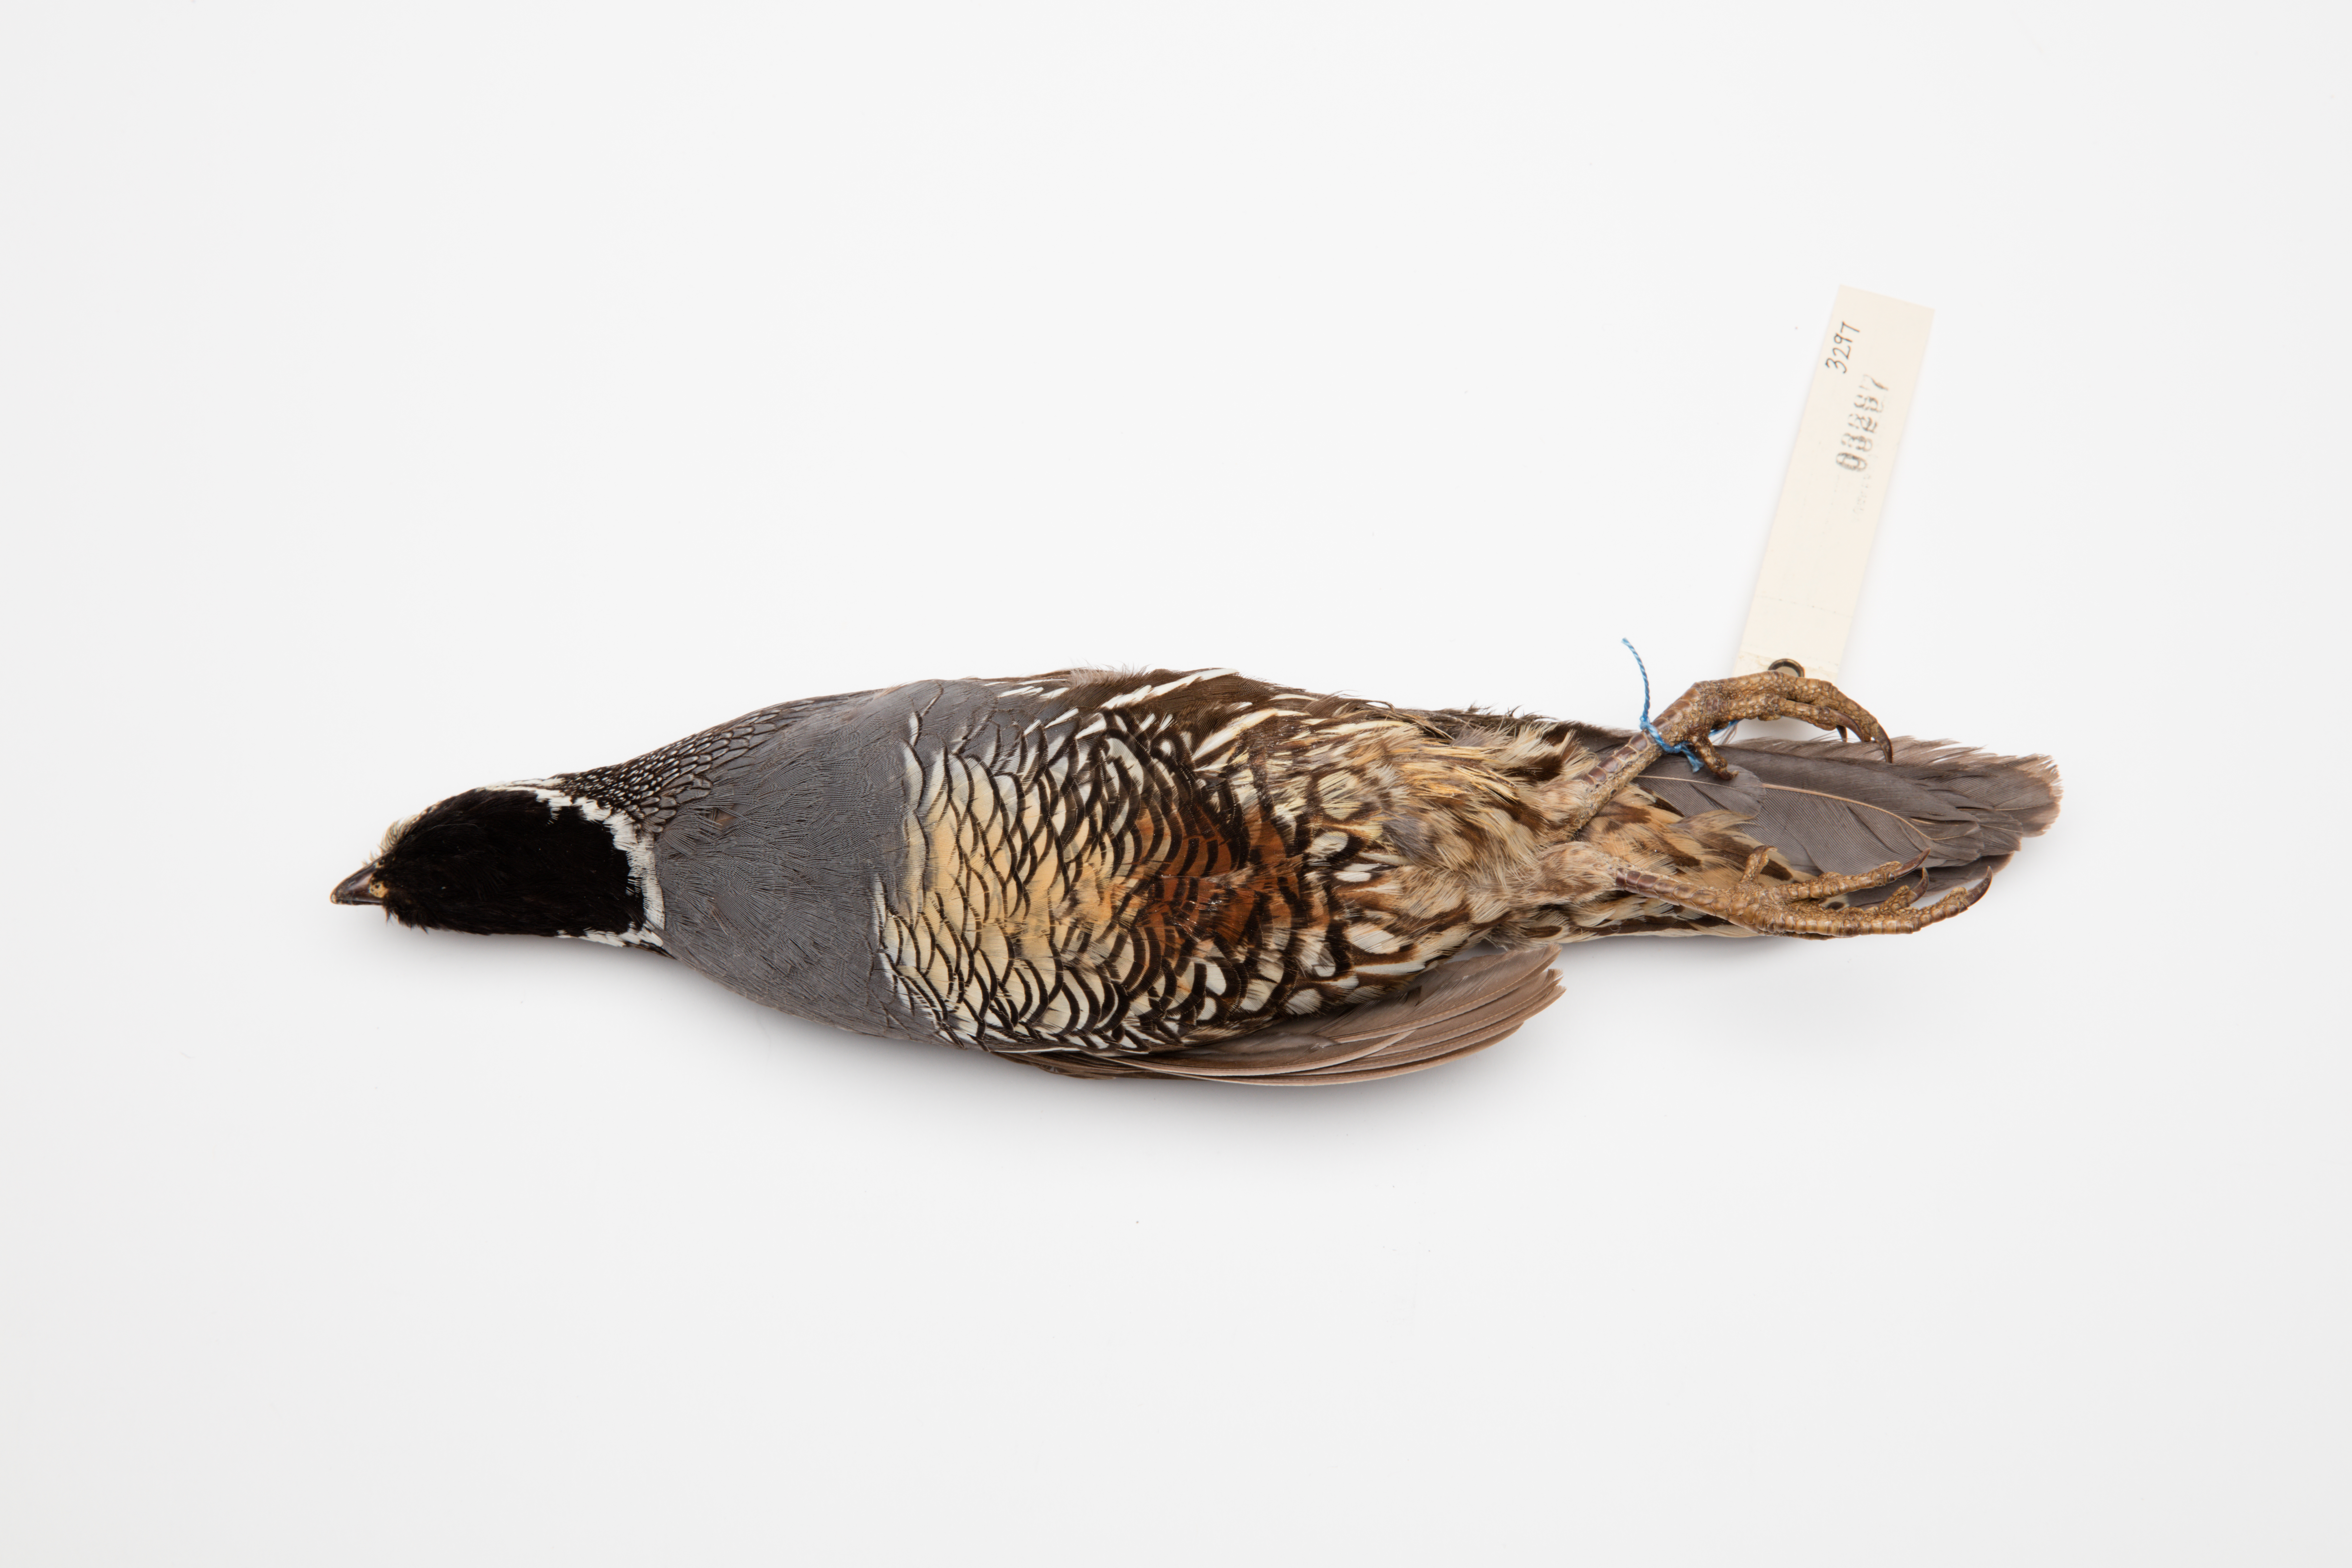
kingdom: Animalia
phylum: Chordata
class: Aves
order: Galliformes
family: Odontophoridae
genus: Callipepla
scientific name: Callipepla californica
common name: California quail
